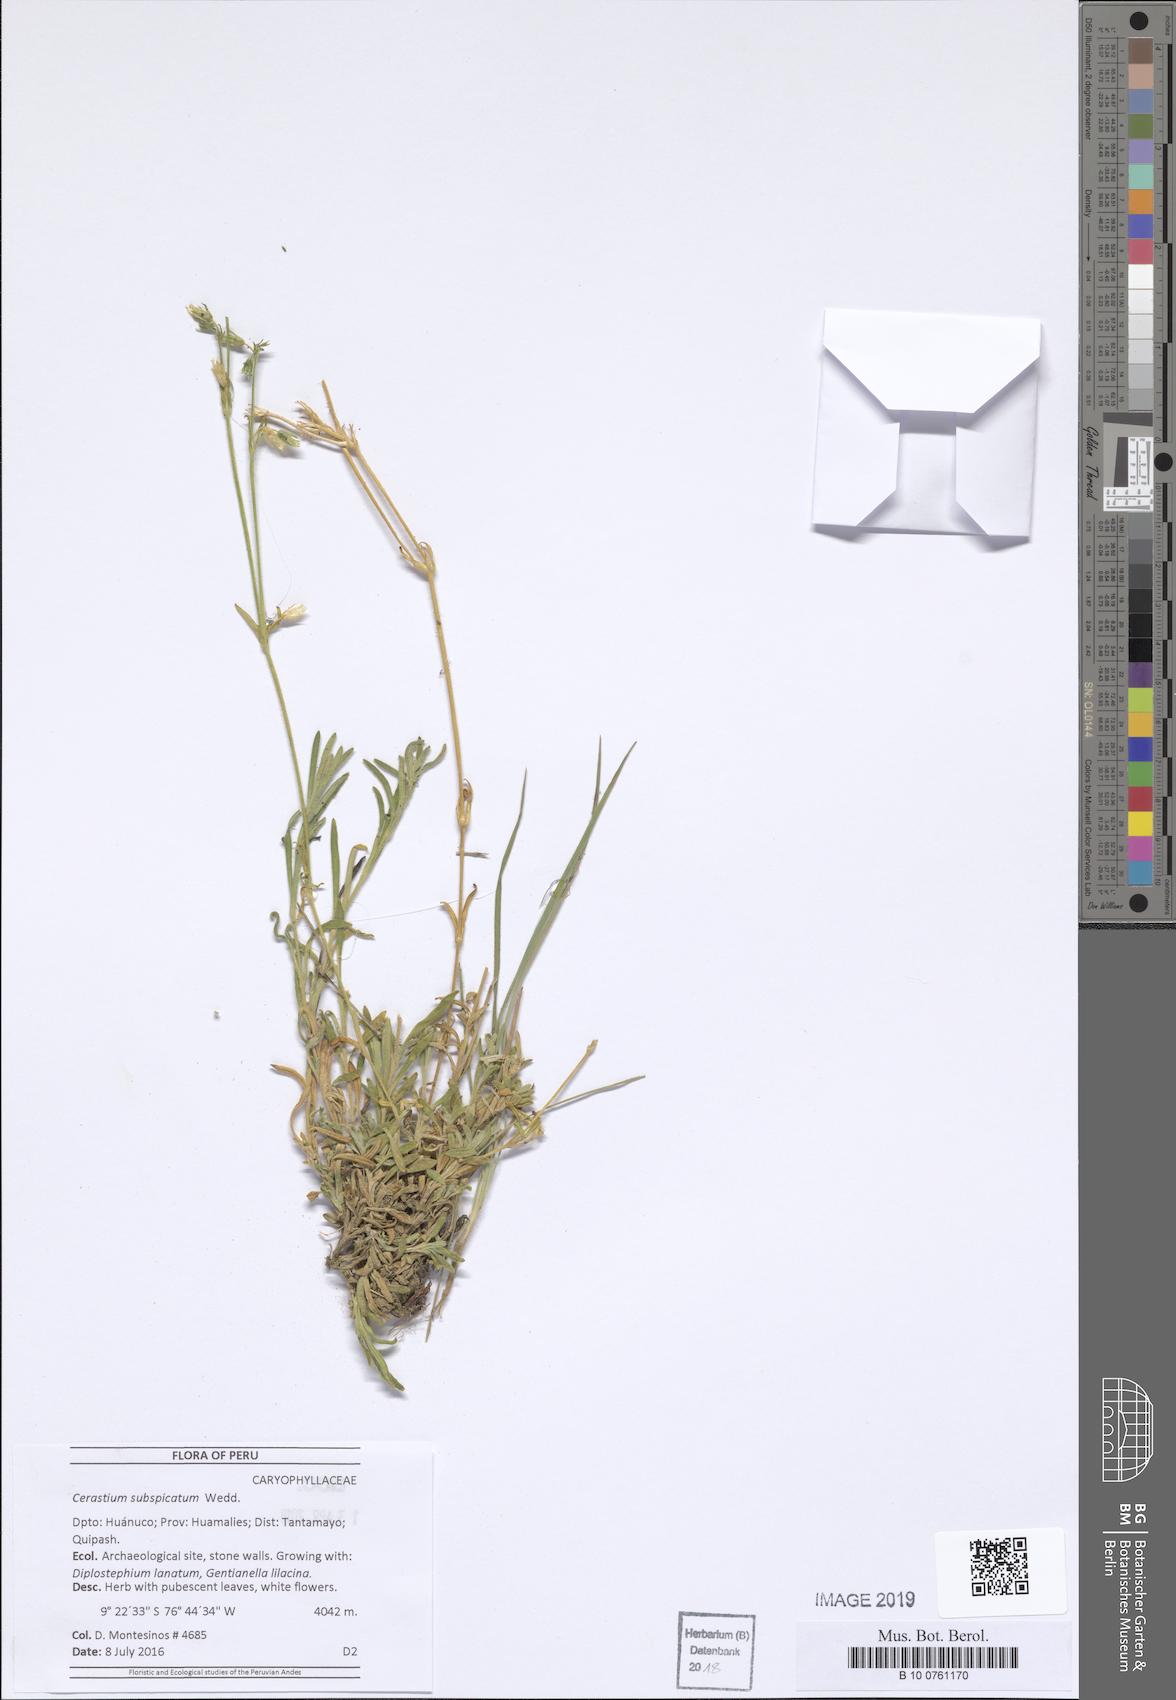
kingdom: Plantae
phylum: Tracheophyta
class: Magnoliopsida
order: Caryophyllales
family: Caryophyllaceae
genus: Cerastium
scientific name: Cerastium subspicatum
